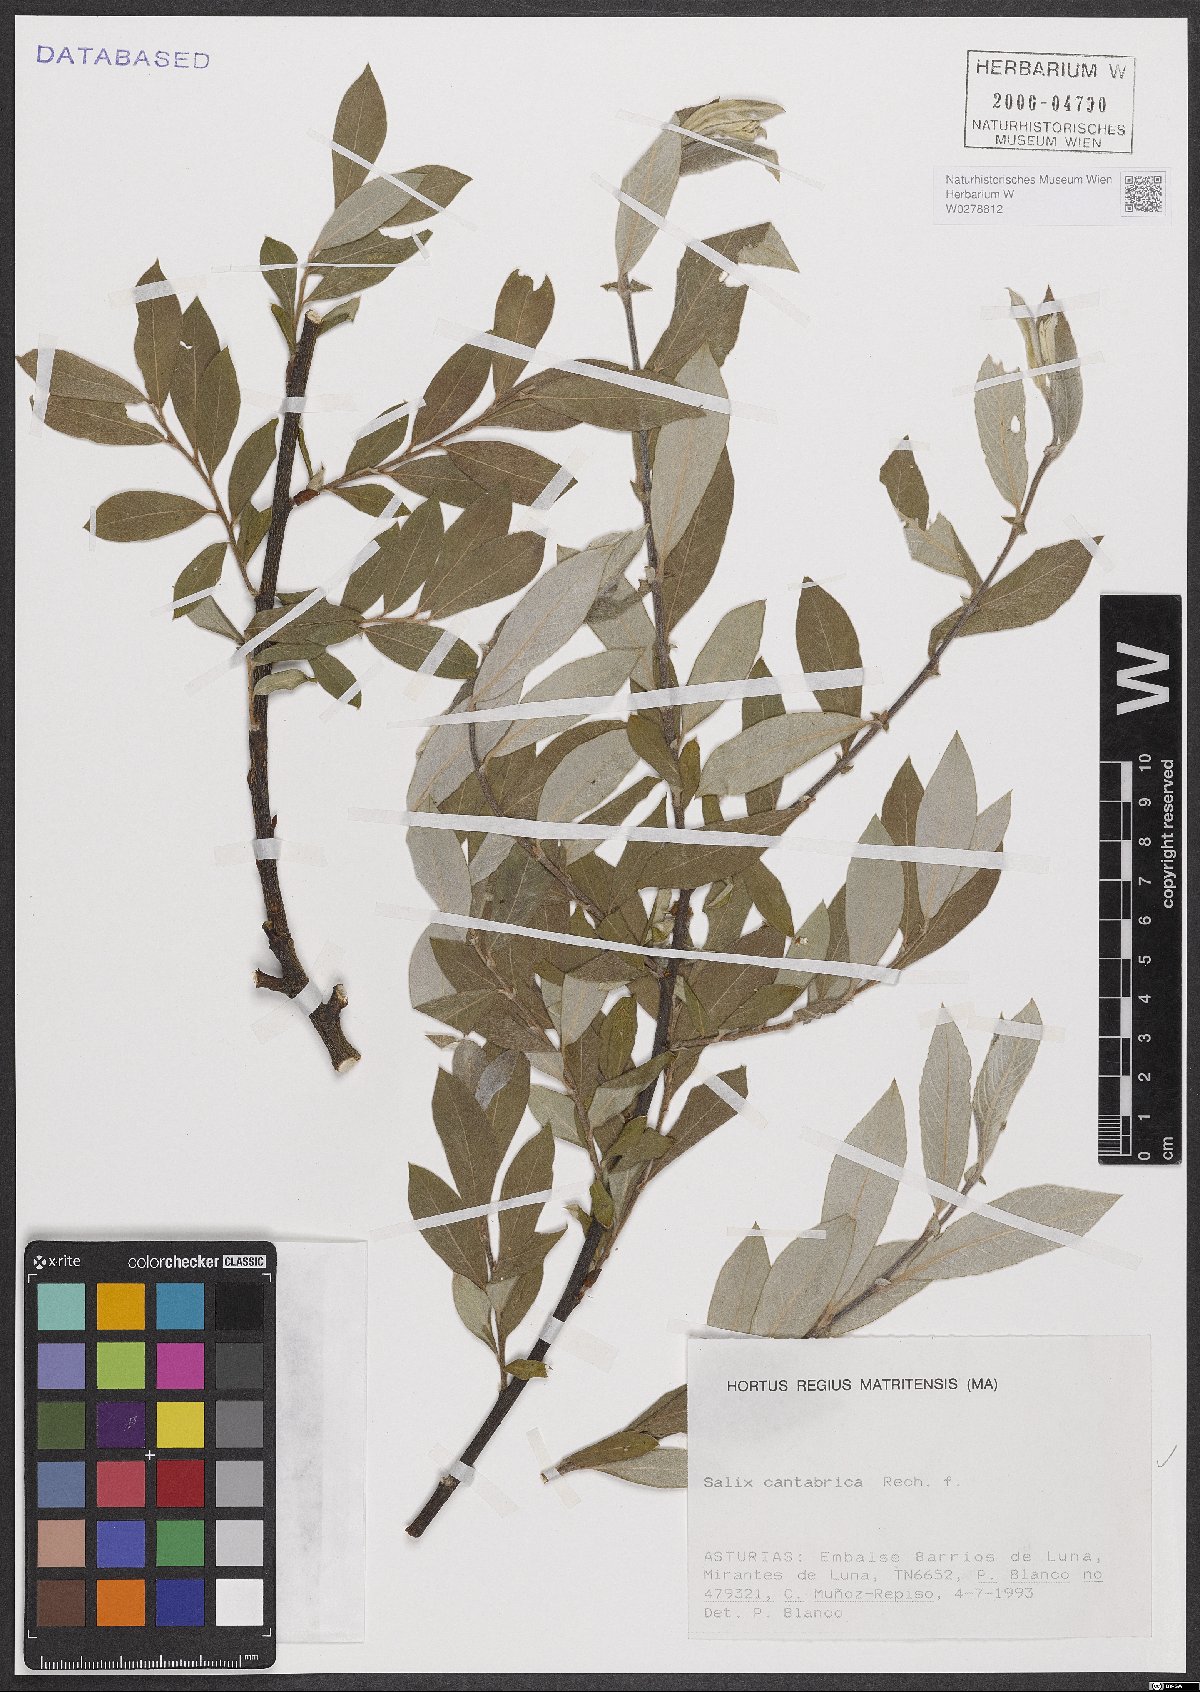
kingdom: Plantae
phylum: Tracheophyta
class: Magnoliopsida
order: Malpighiales
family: Salicaceae
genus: Salix
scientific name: Salix cantabrica
